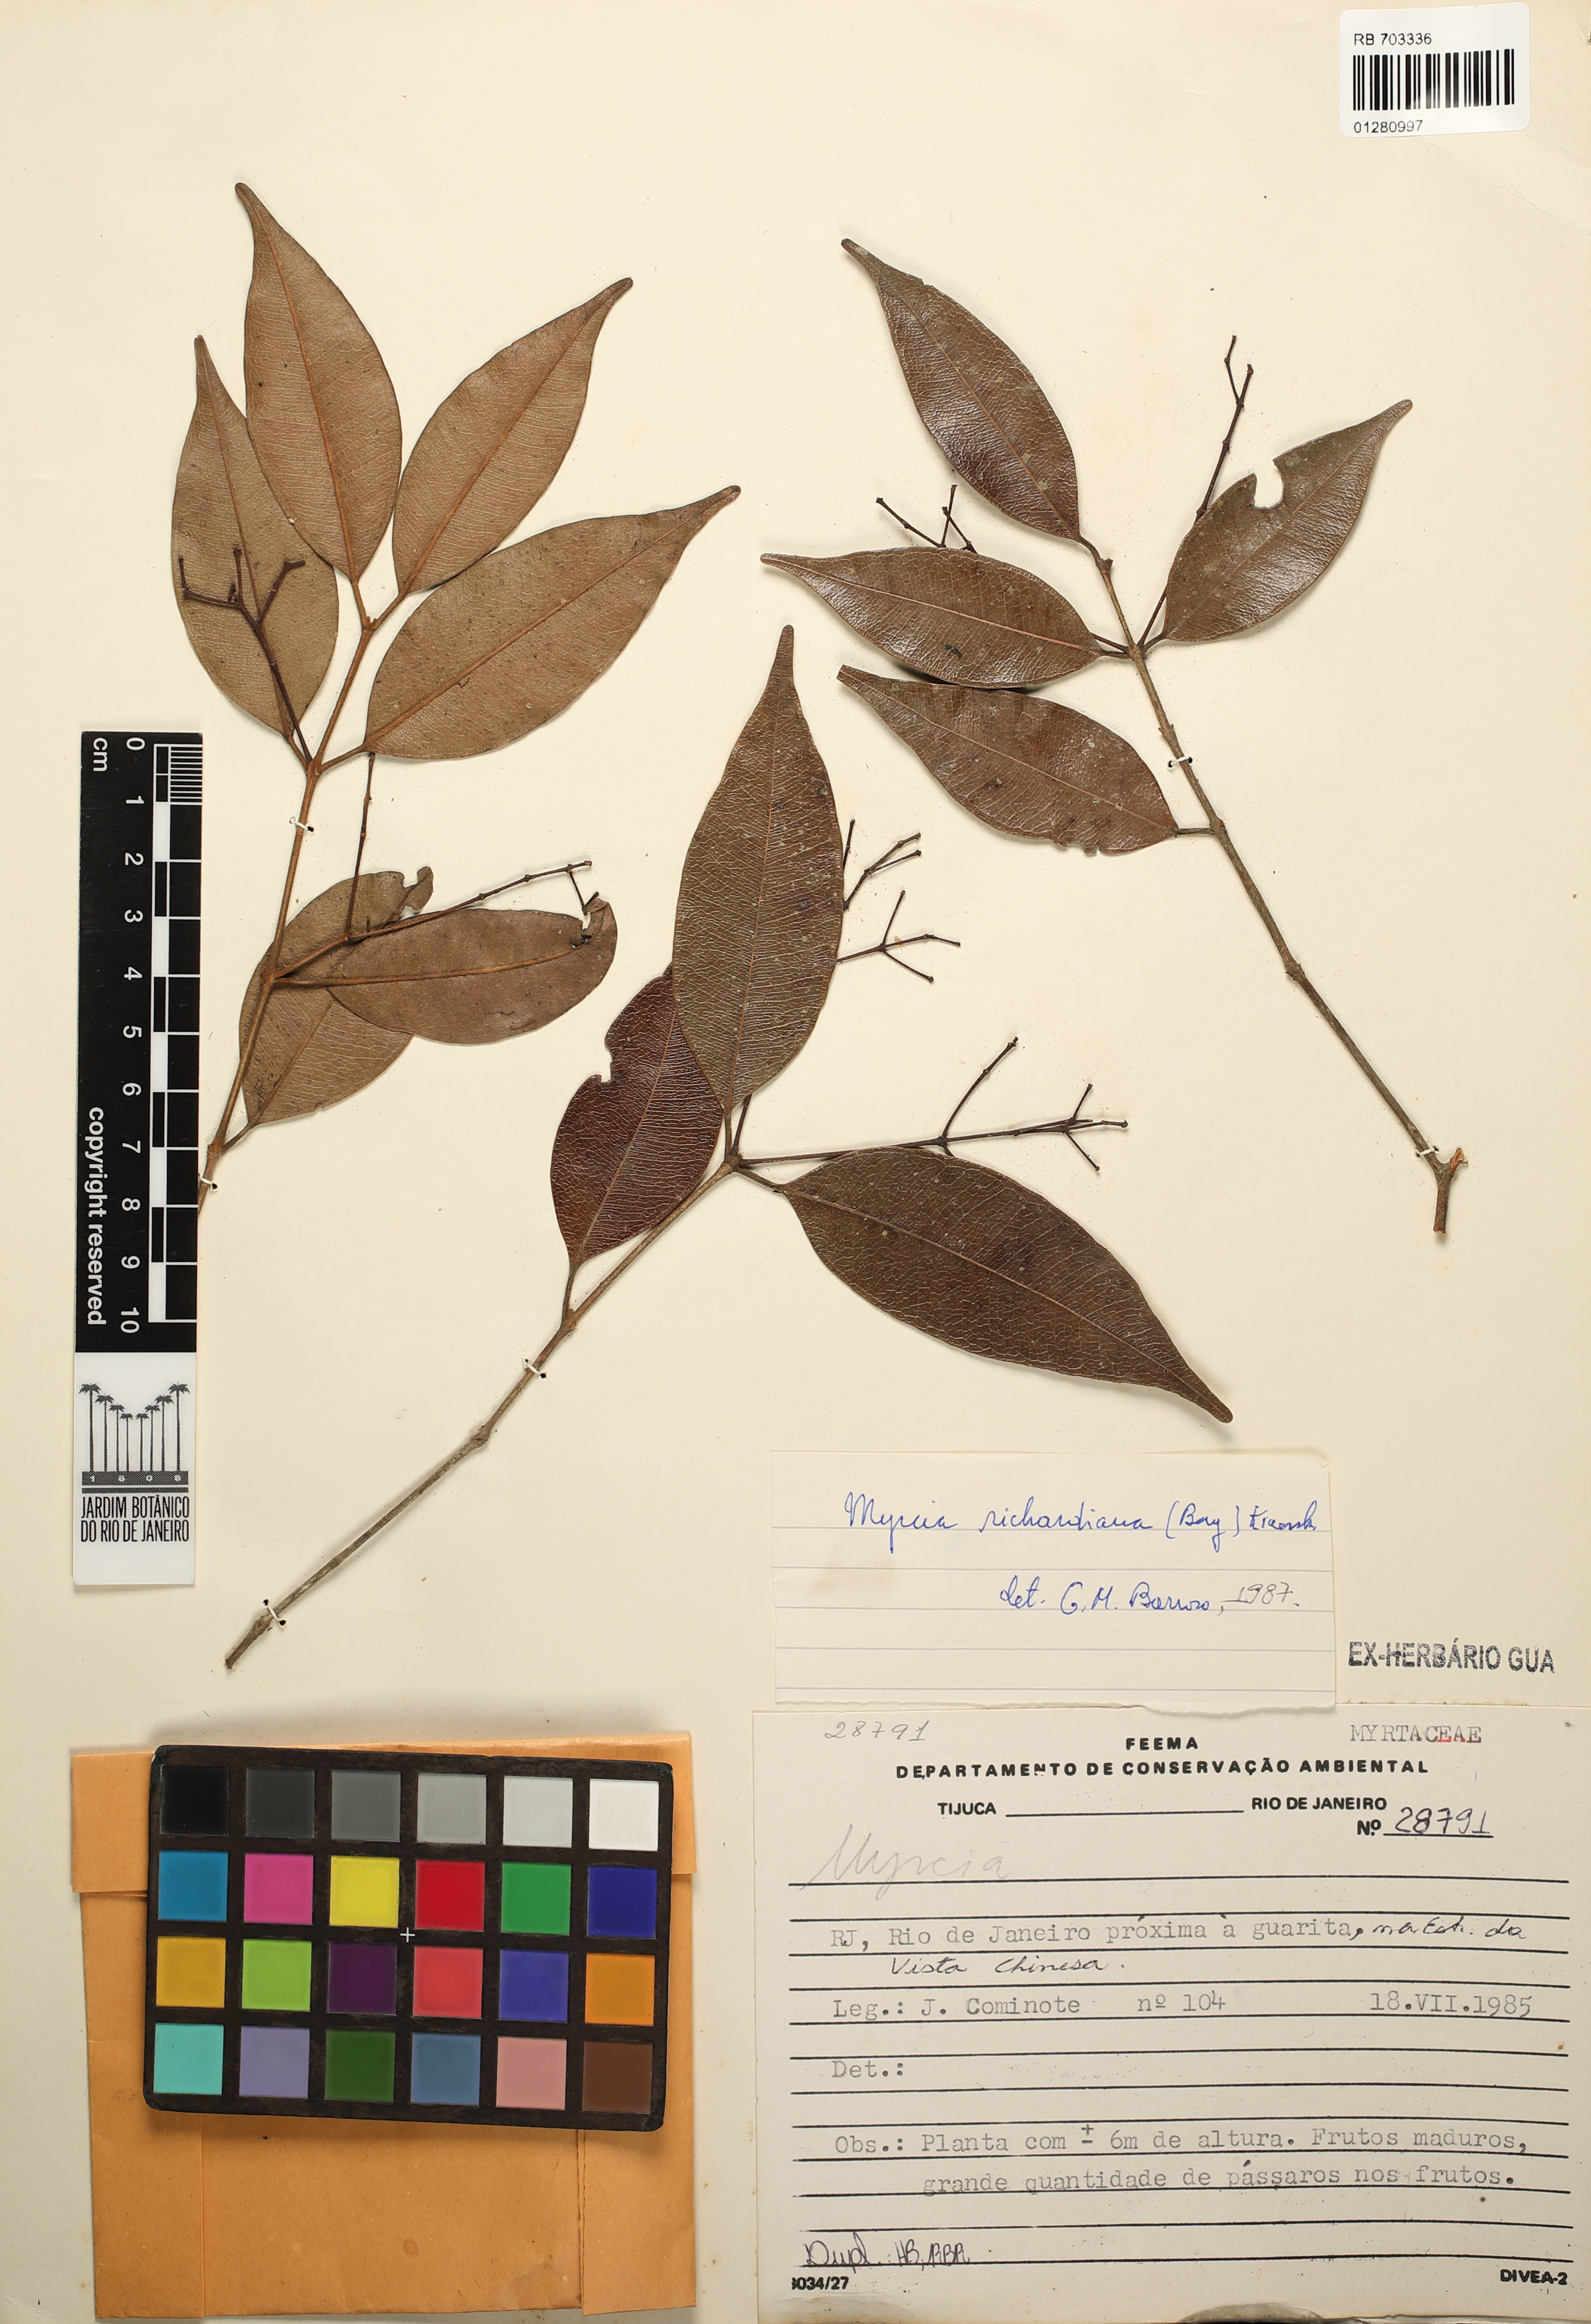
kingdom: Plantae
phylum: Tracheophyta
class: Magnoliopsida
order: Myrtales
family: Myrtaceae
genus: Myrcia
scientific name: Myrcia richardiana
